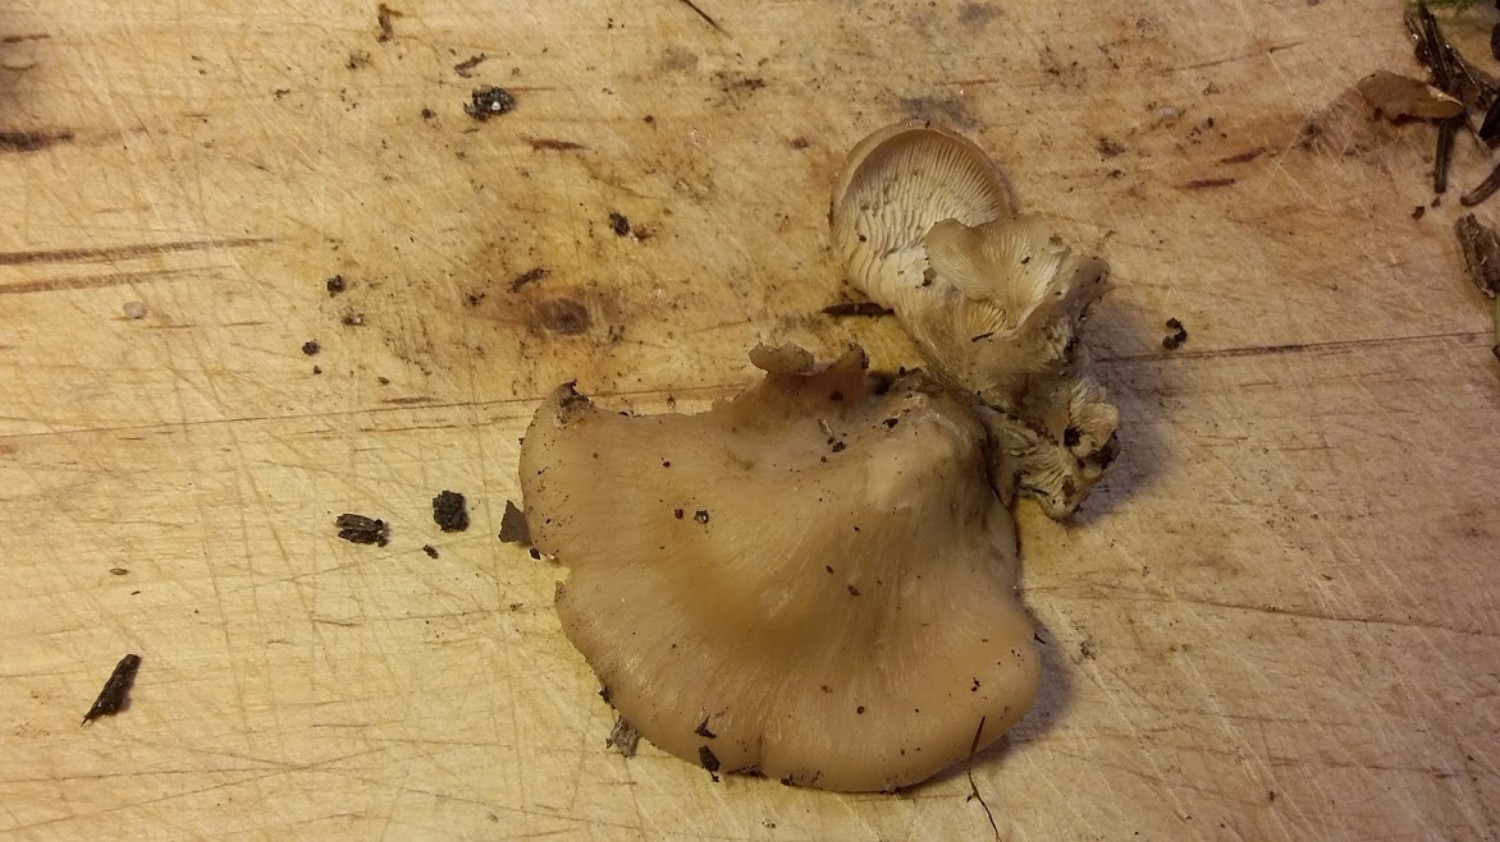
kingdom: Fungi
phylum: Basidiomycota
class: Agaricomycetes
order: Russulales
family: Auriscalpiaceae
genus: Lentinellus
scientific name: Lentinellus ursinus
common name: børstehåret savbladhat
